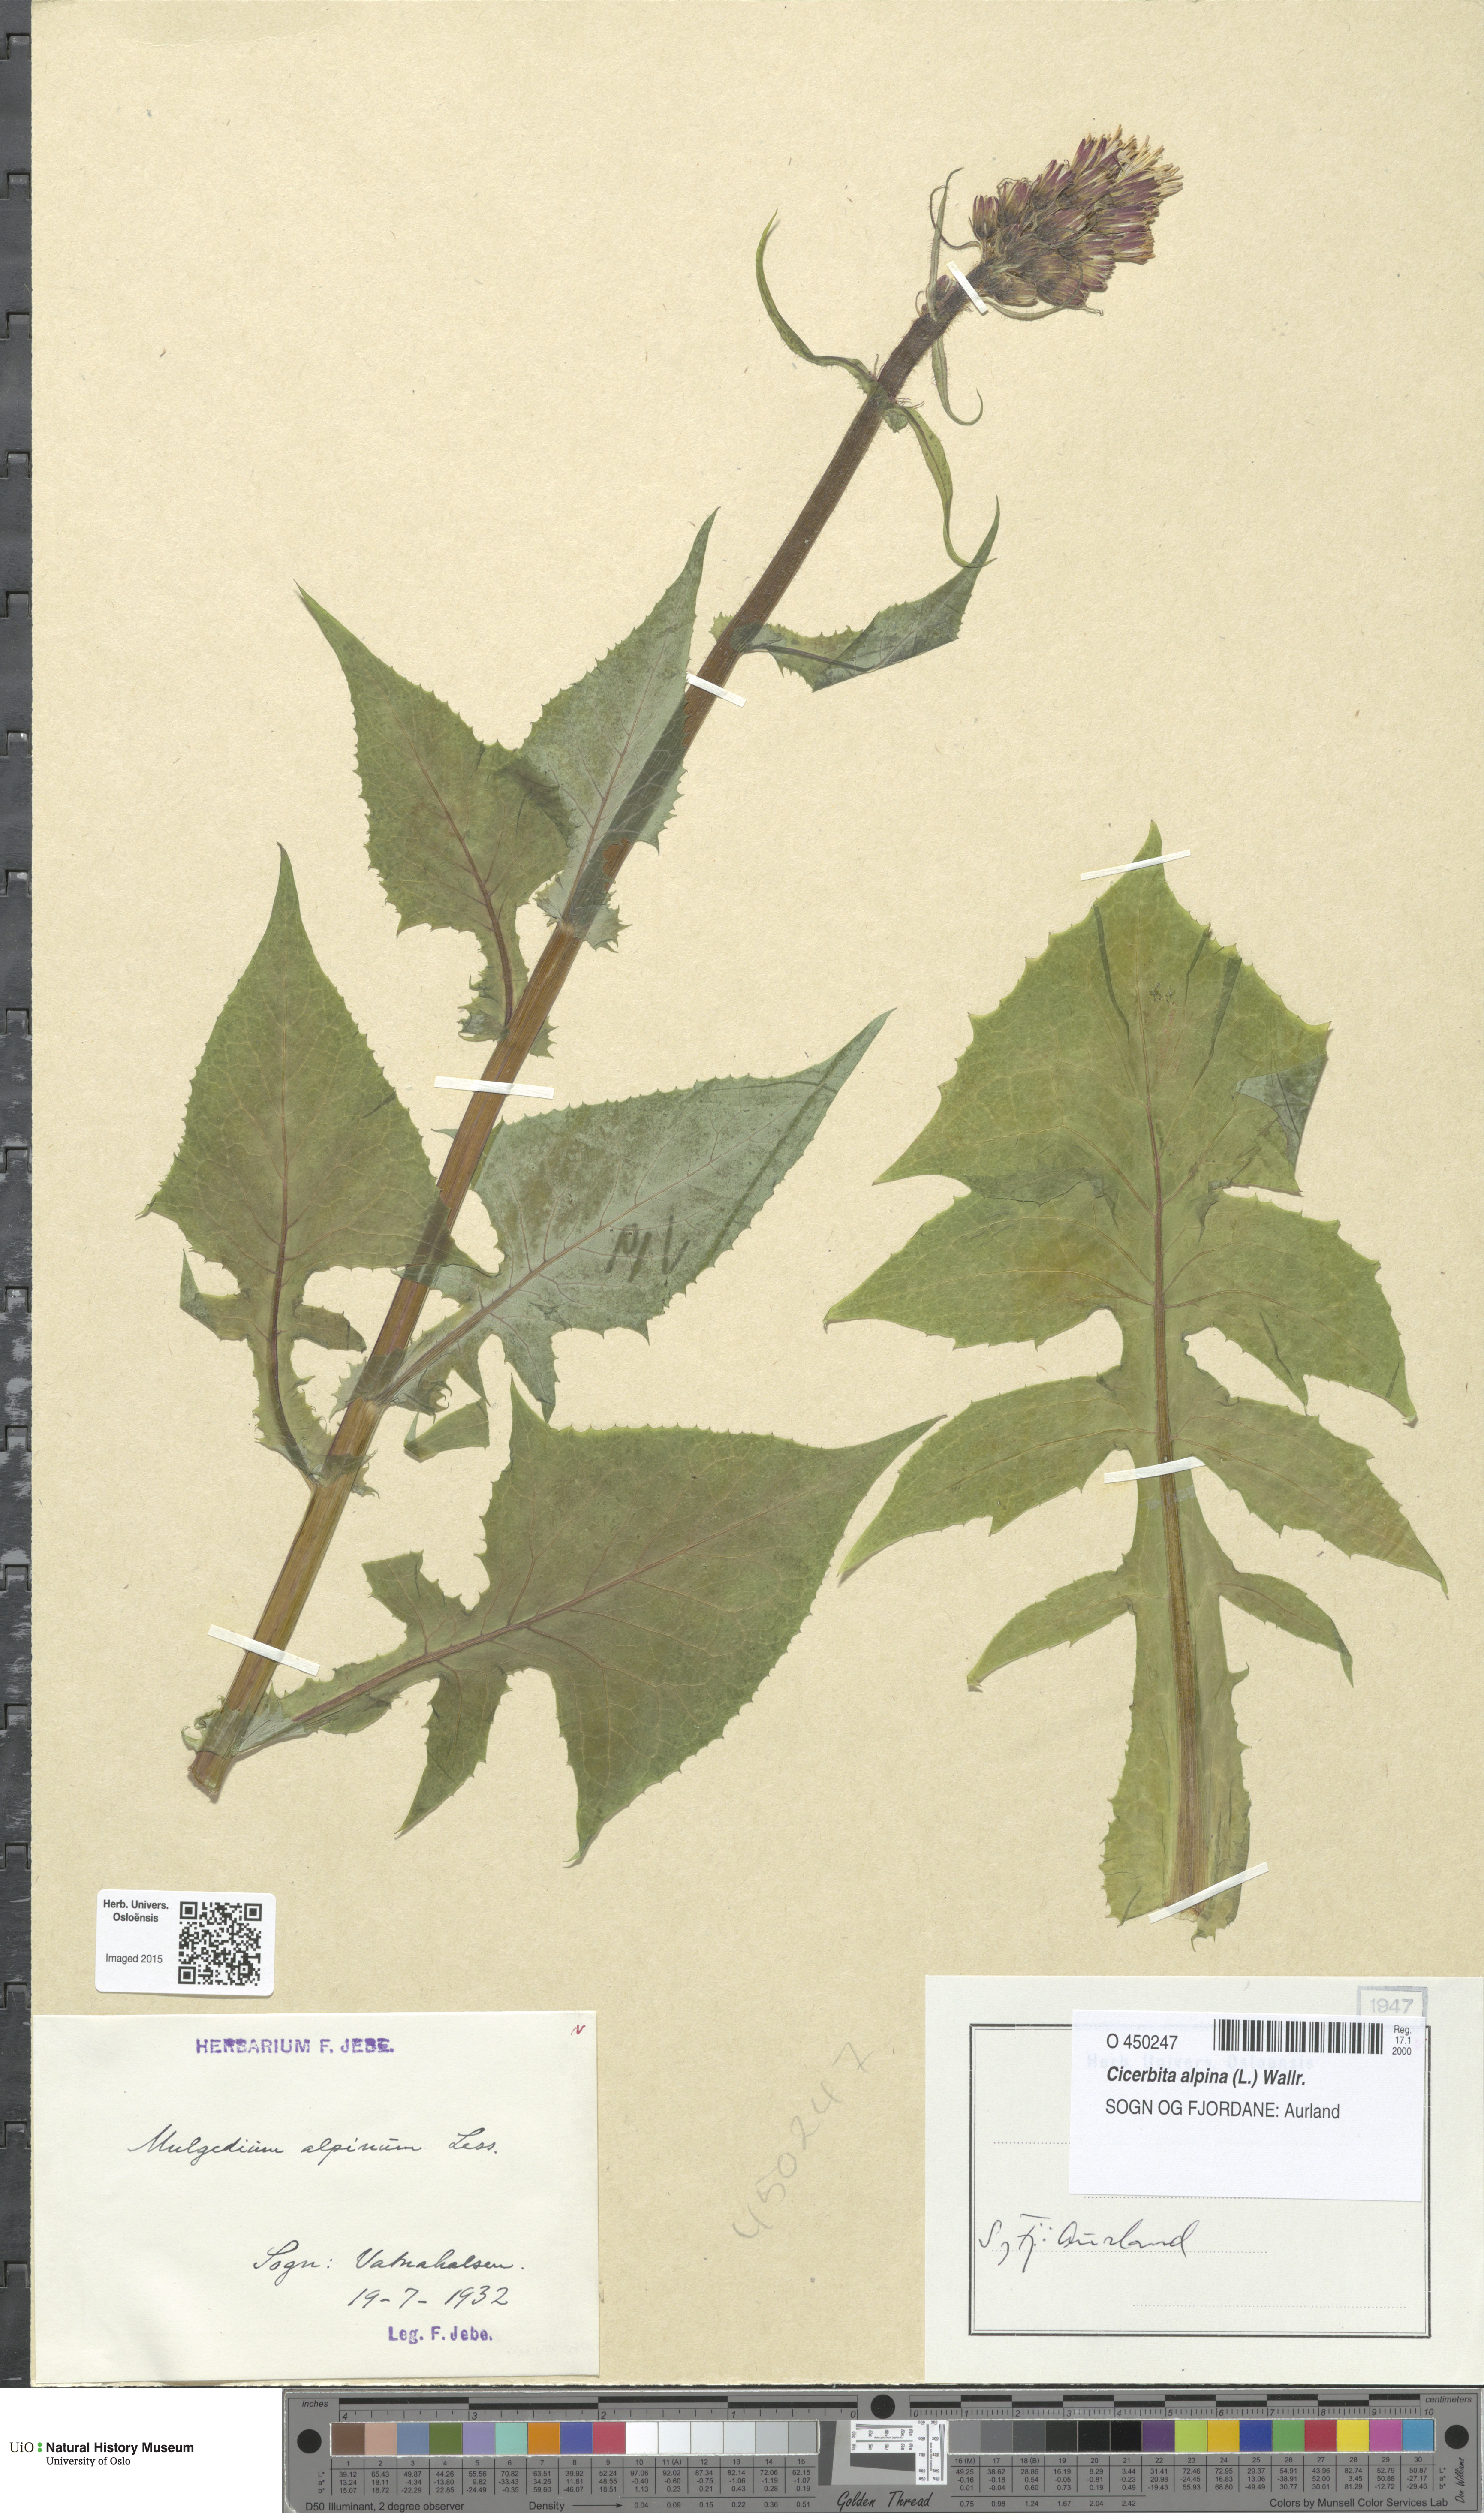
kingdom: Plantae
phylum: Tracheophyta
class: Magnoliopsida
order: Asterales
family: Asteraceae
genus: Cicerbita
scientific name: Cicerbita alpina
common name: Alpine blue-sow-thistle
